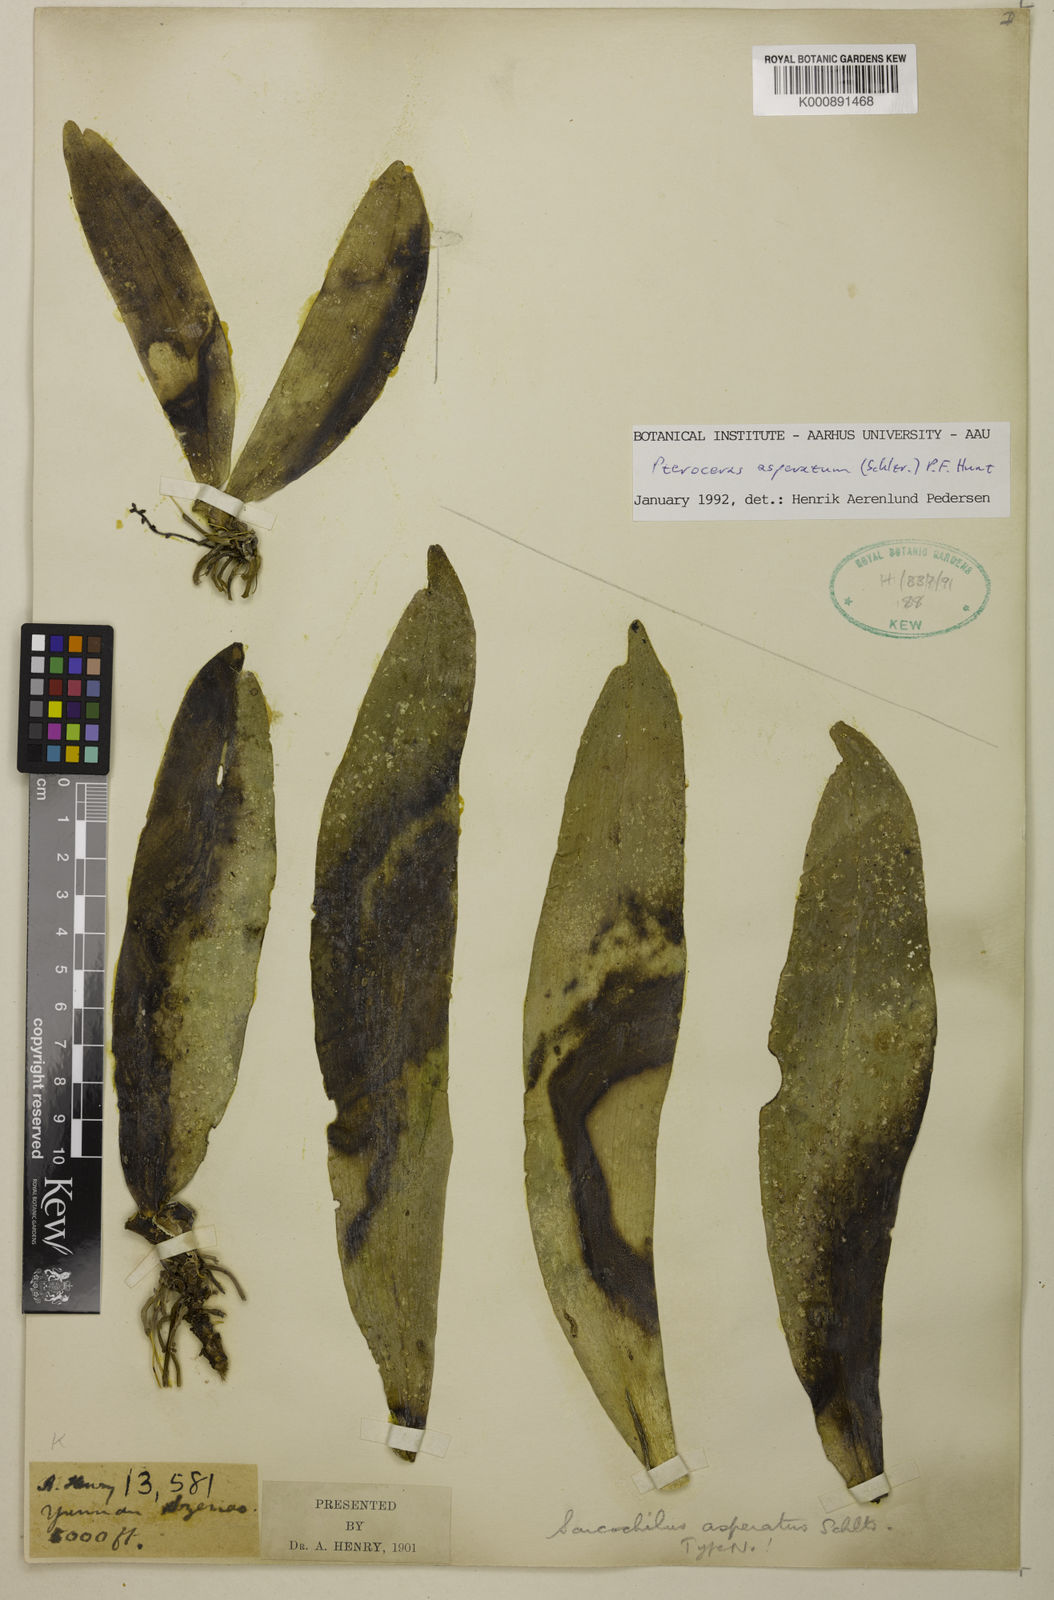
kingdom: Plantae
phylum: Tracheophyta
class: Liliopsida
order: Asparagales
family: Orchidaceae
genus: Pteroceras
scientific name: Pteroceras asperatum
